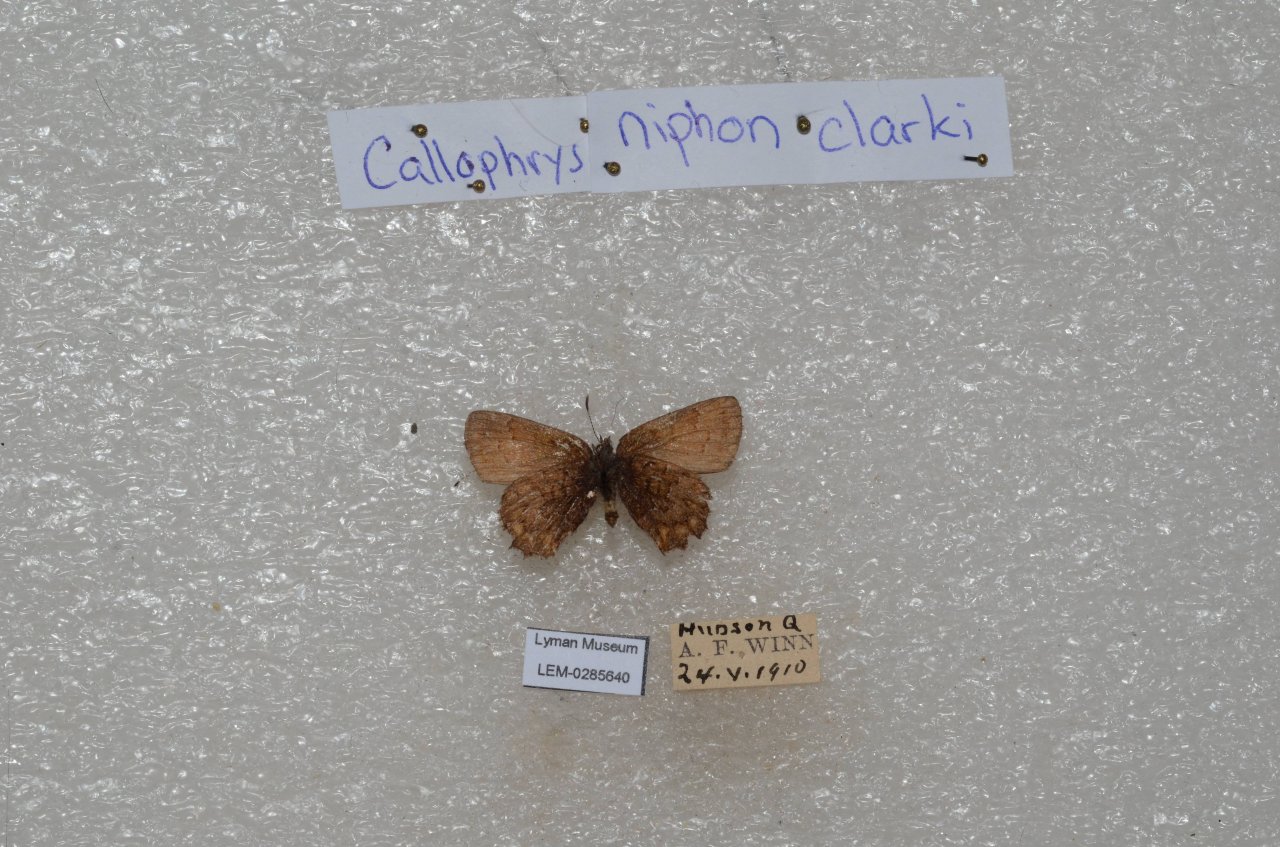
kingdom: Animalia
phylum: Arthropoda
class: Insecta
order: Lepidoptera
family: Lycaenidae
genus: Incisalia
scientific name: Incisalia niphon
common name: Eastern Pine Elfin
